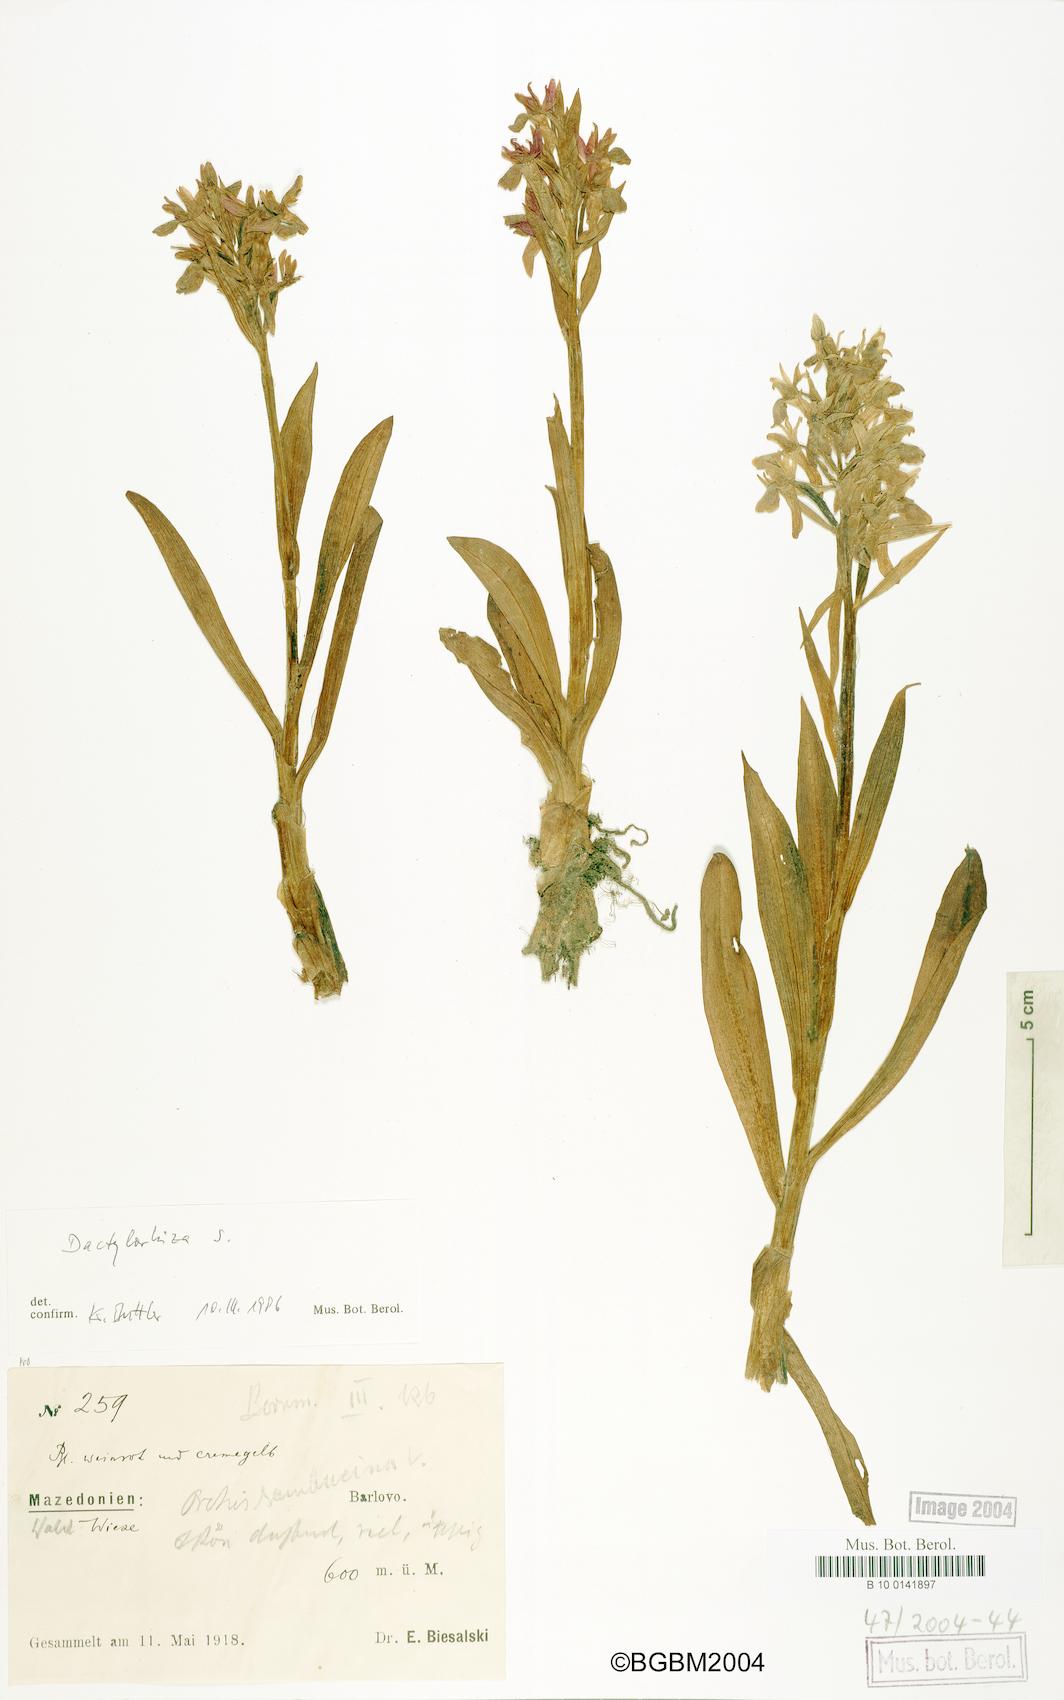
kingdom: Plantae
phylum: Tracheophyta
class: Liliopsida
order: Asparagales
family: Orchidaceae
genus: Dactylorhiza
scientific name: Dactylorhiza sambucina
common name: Elder-flowered orchid
